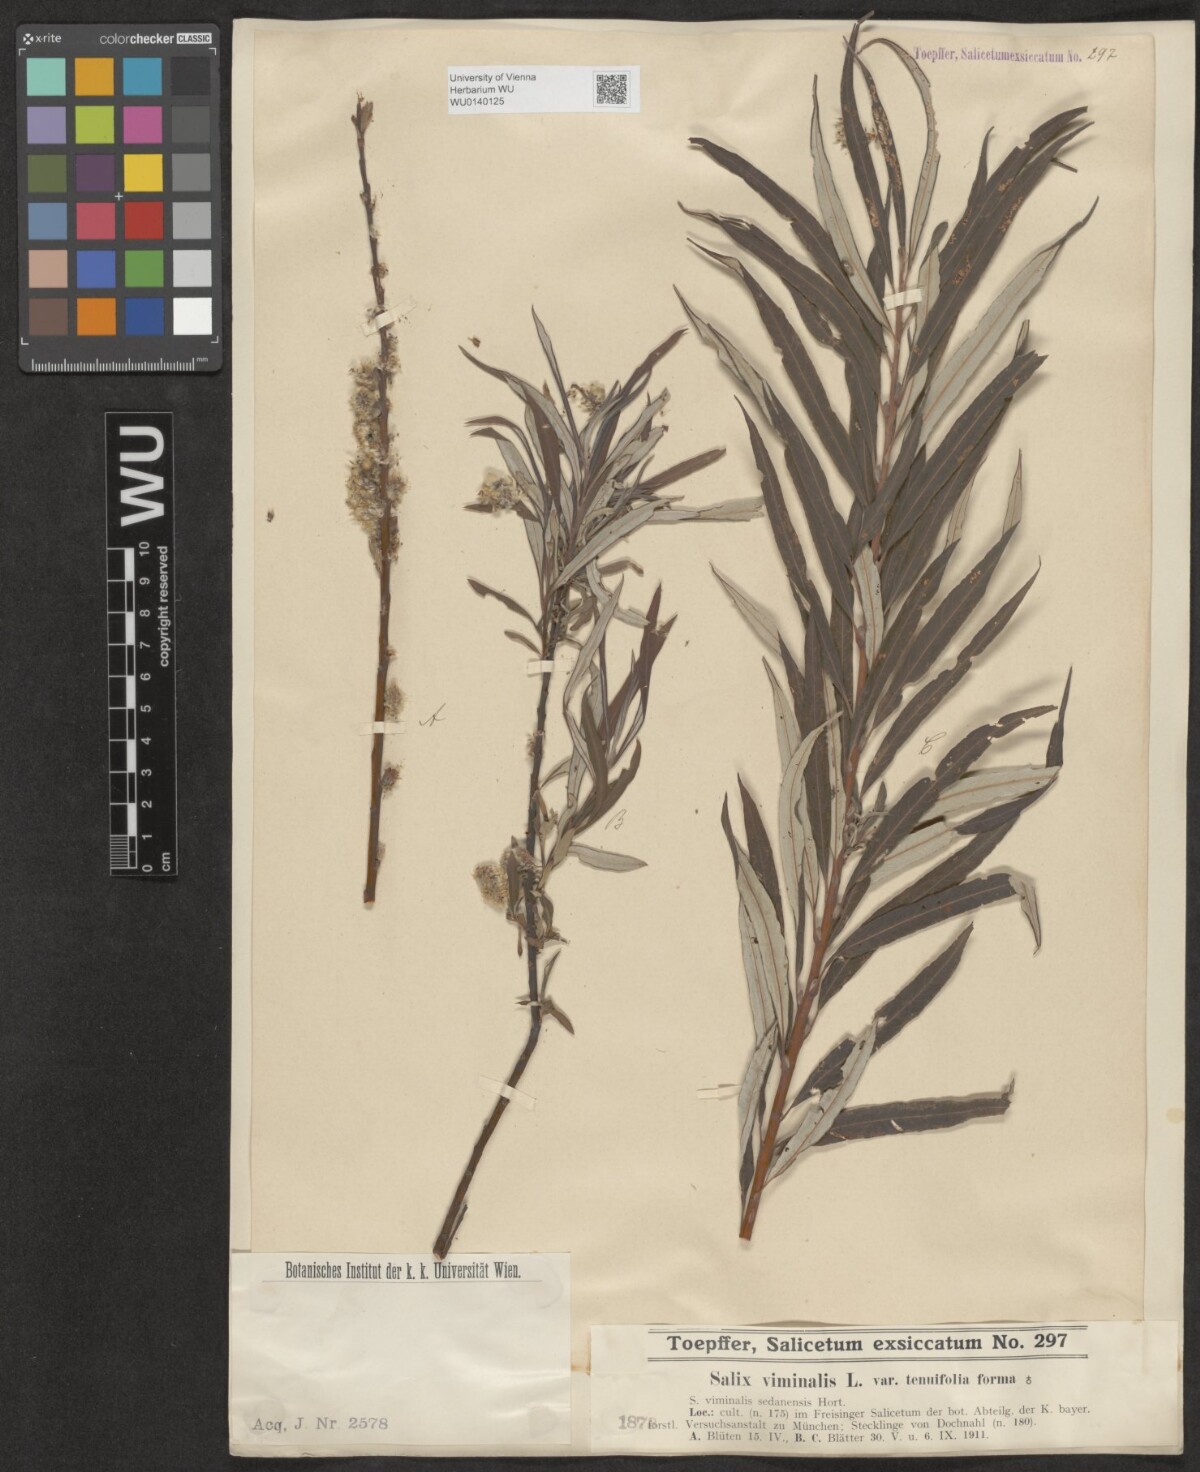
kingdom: Plantae
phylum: Tracheophyta
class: Magnoliopsida
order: Malpighiales
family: Salicaceae
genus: Salix
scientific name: Salix viminalis
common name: Osier
